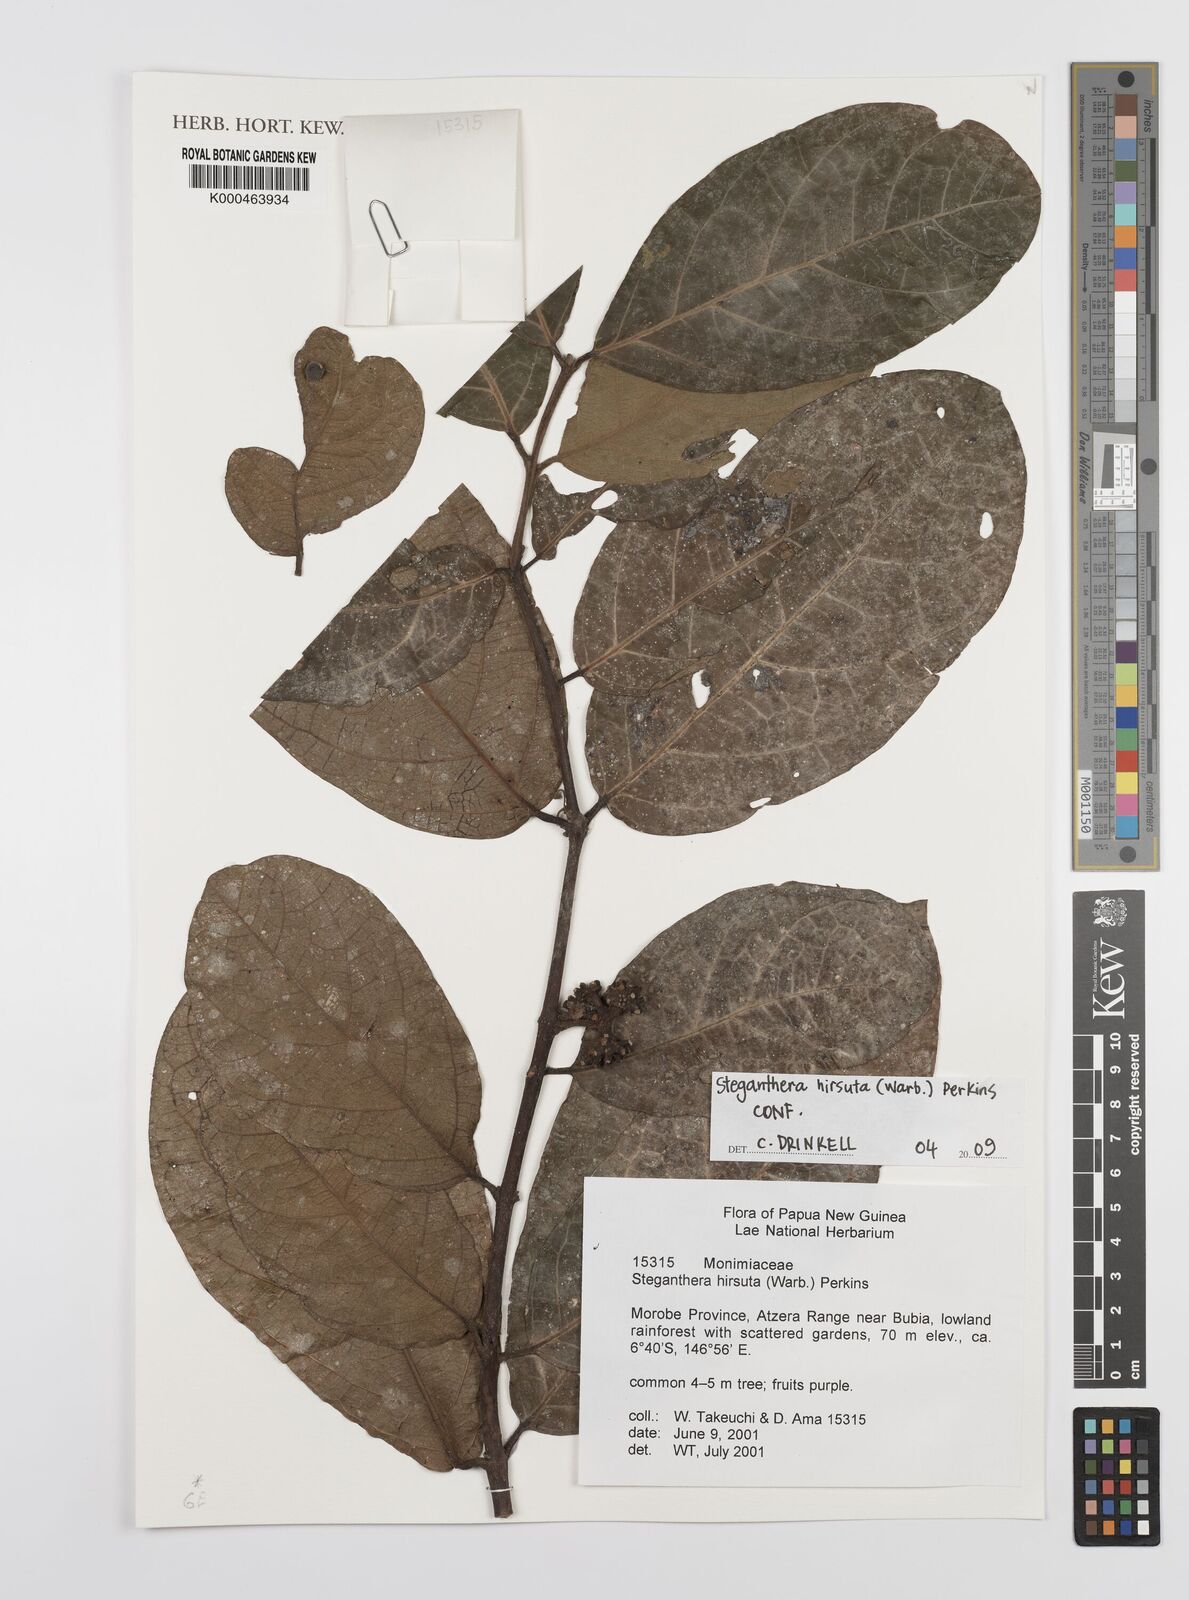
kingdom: Plantae
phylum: Tracheophyta
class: Magnoliopsida
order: Laurales
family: Monimiaceae
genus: Steganthera
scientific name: Steganthera hirsuta
